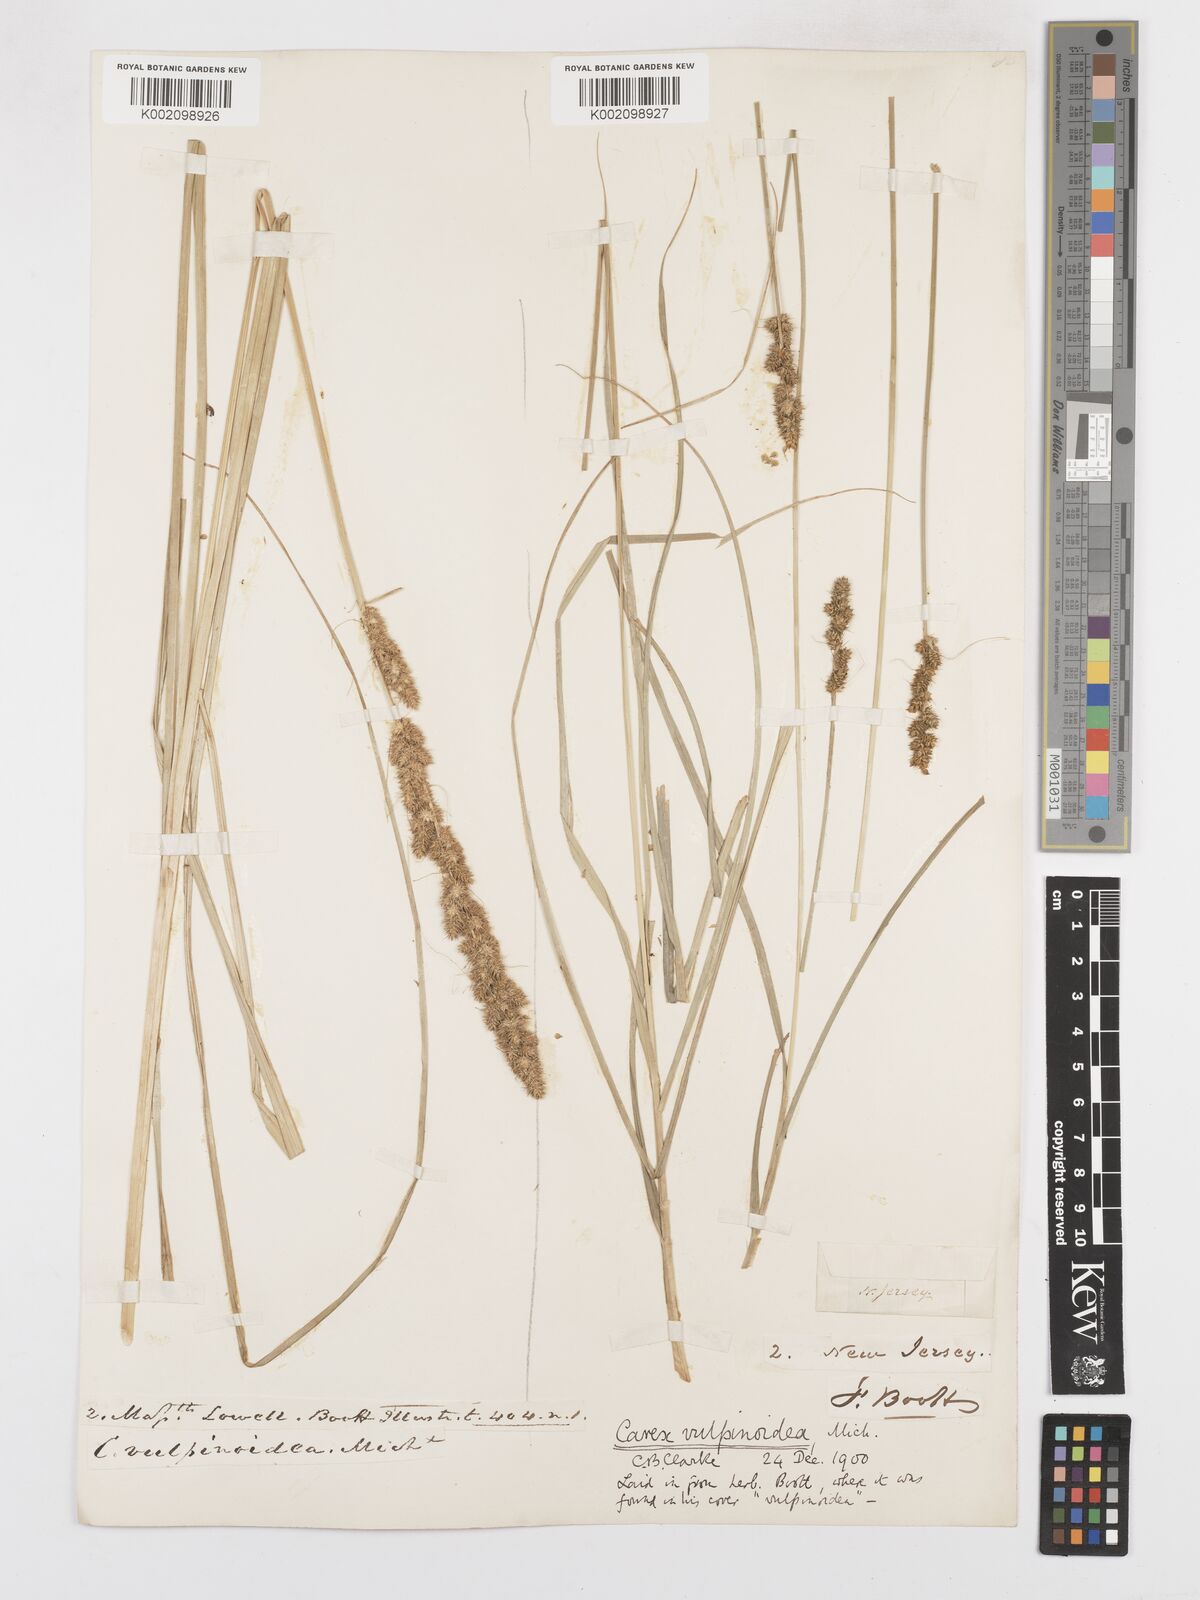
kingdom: Plantae
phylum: Tracheophyta
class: Liliopsida
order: Poales
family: Cyperaceae
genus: Carex
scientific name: Carex vulpinoidea
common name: American fox-sedge
